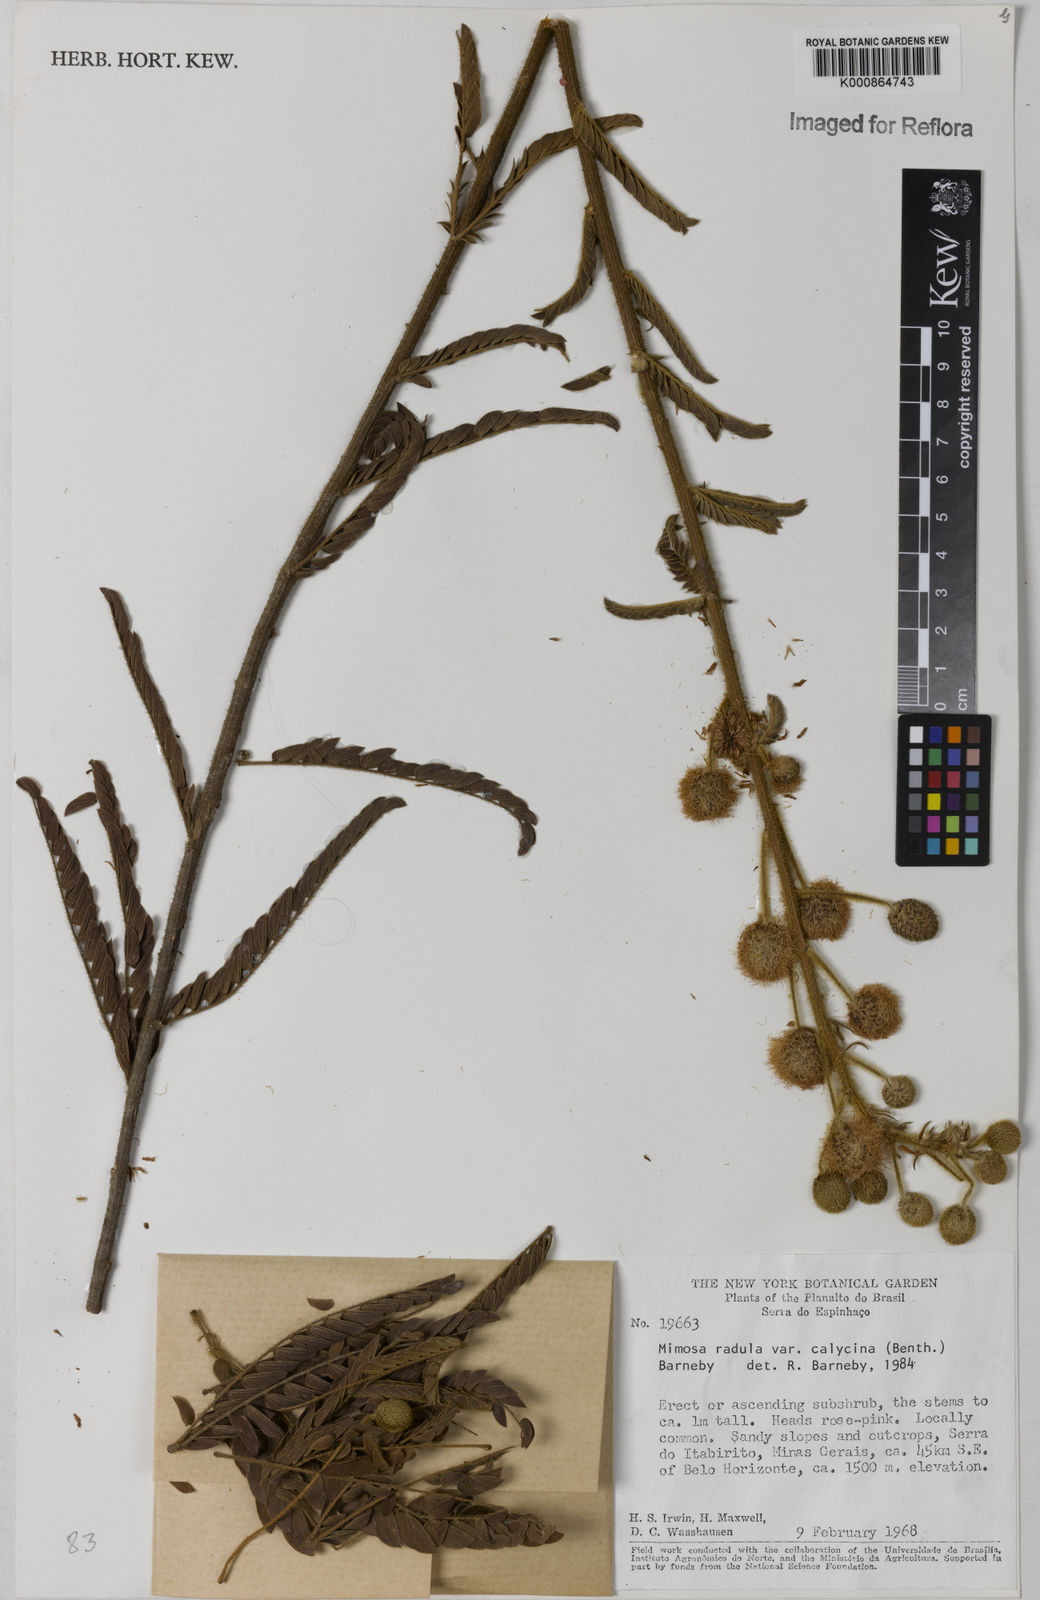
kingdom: Plantae
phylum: Tracheophyta
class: Magnoliopsida
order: Fabales
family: Fabaceae
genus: Mimosa
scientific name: Mimosa radula
